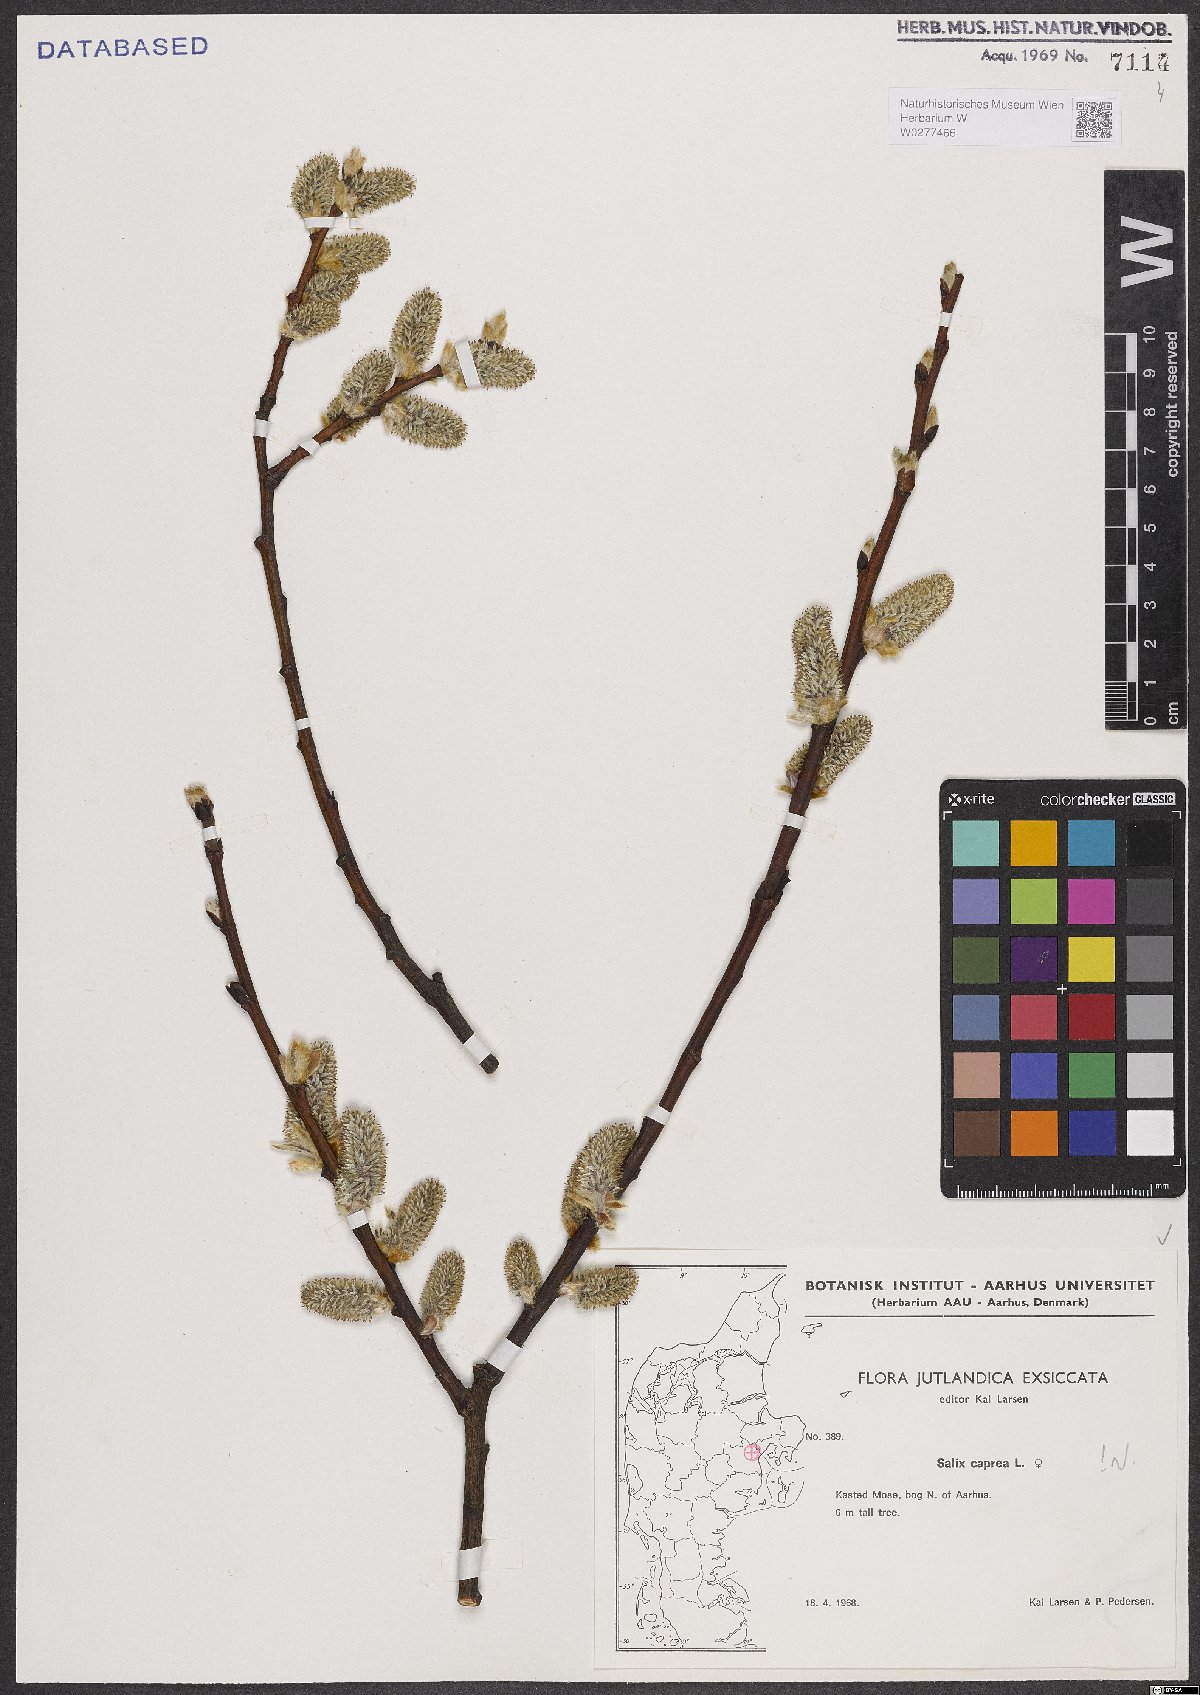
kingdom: Plantae
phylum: Tracheophyta
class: Magnoliopsida
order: Malpighiales
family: Salicaceae
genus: Salix
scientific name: Salix caprea
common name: Goat willow
